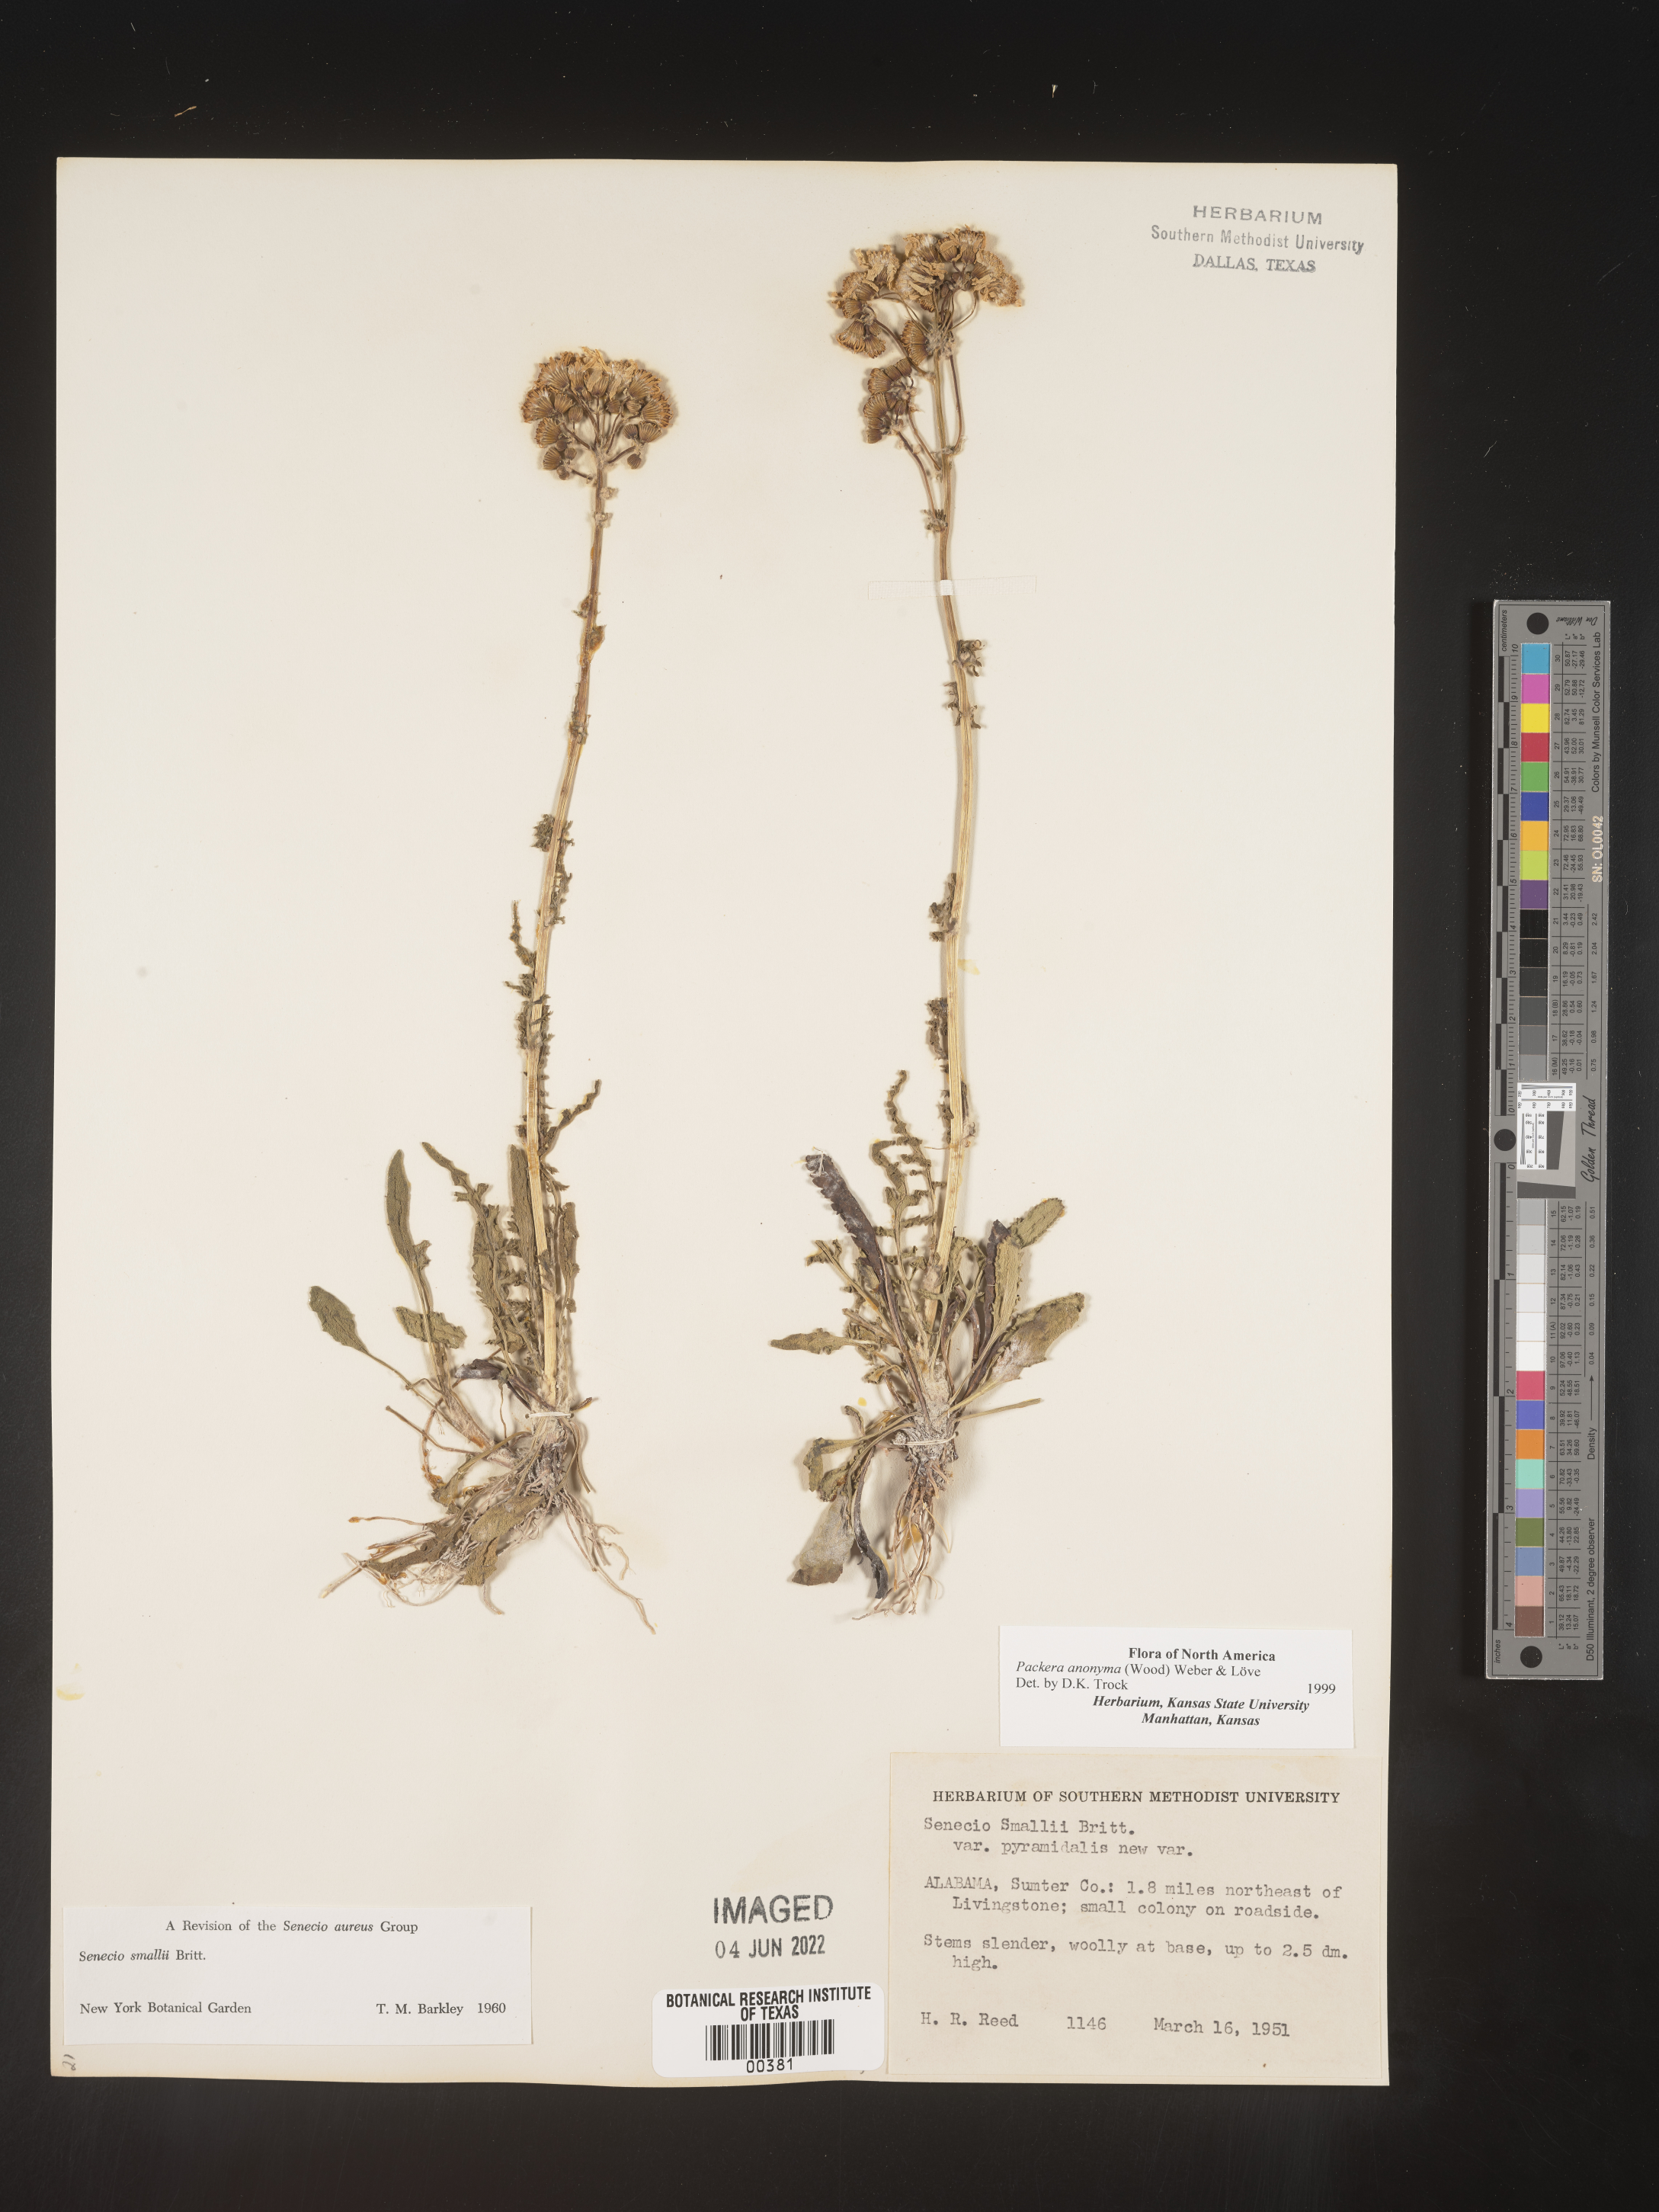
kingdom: Plantae
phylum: Tracheophyta
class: Magnoliopsida
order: Asterales
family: Asteraceae
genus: Packera
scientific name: Packera anonyma
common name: Small ragwort
